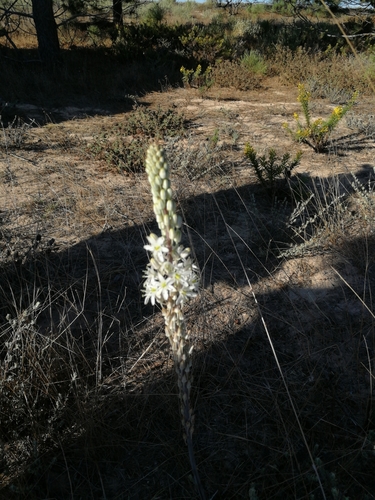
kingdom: Plantae
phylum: Tracheophyta
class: Liliopsida
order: Asparagales
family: Asparagaceae
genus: Drimia
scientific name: Drimia maritima
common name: Maritime squill
